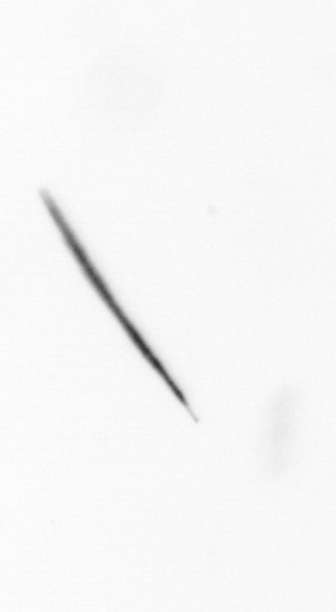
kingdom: Chromista
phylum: Ochrophyta
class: Bacillariophyceae
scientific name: Bacillariophyceae
